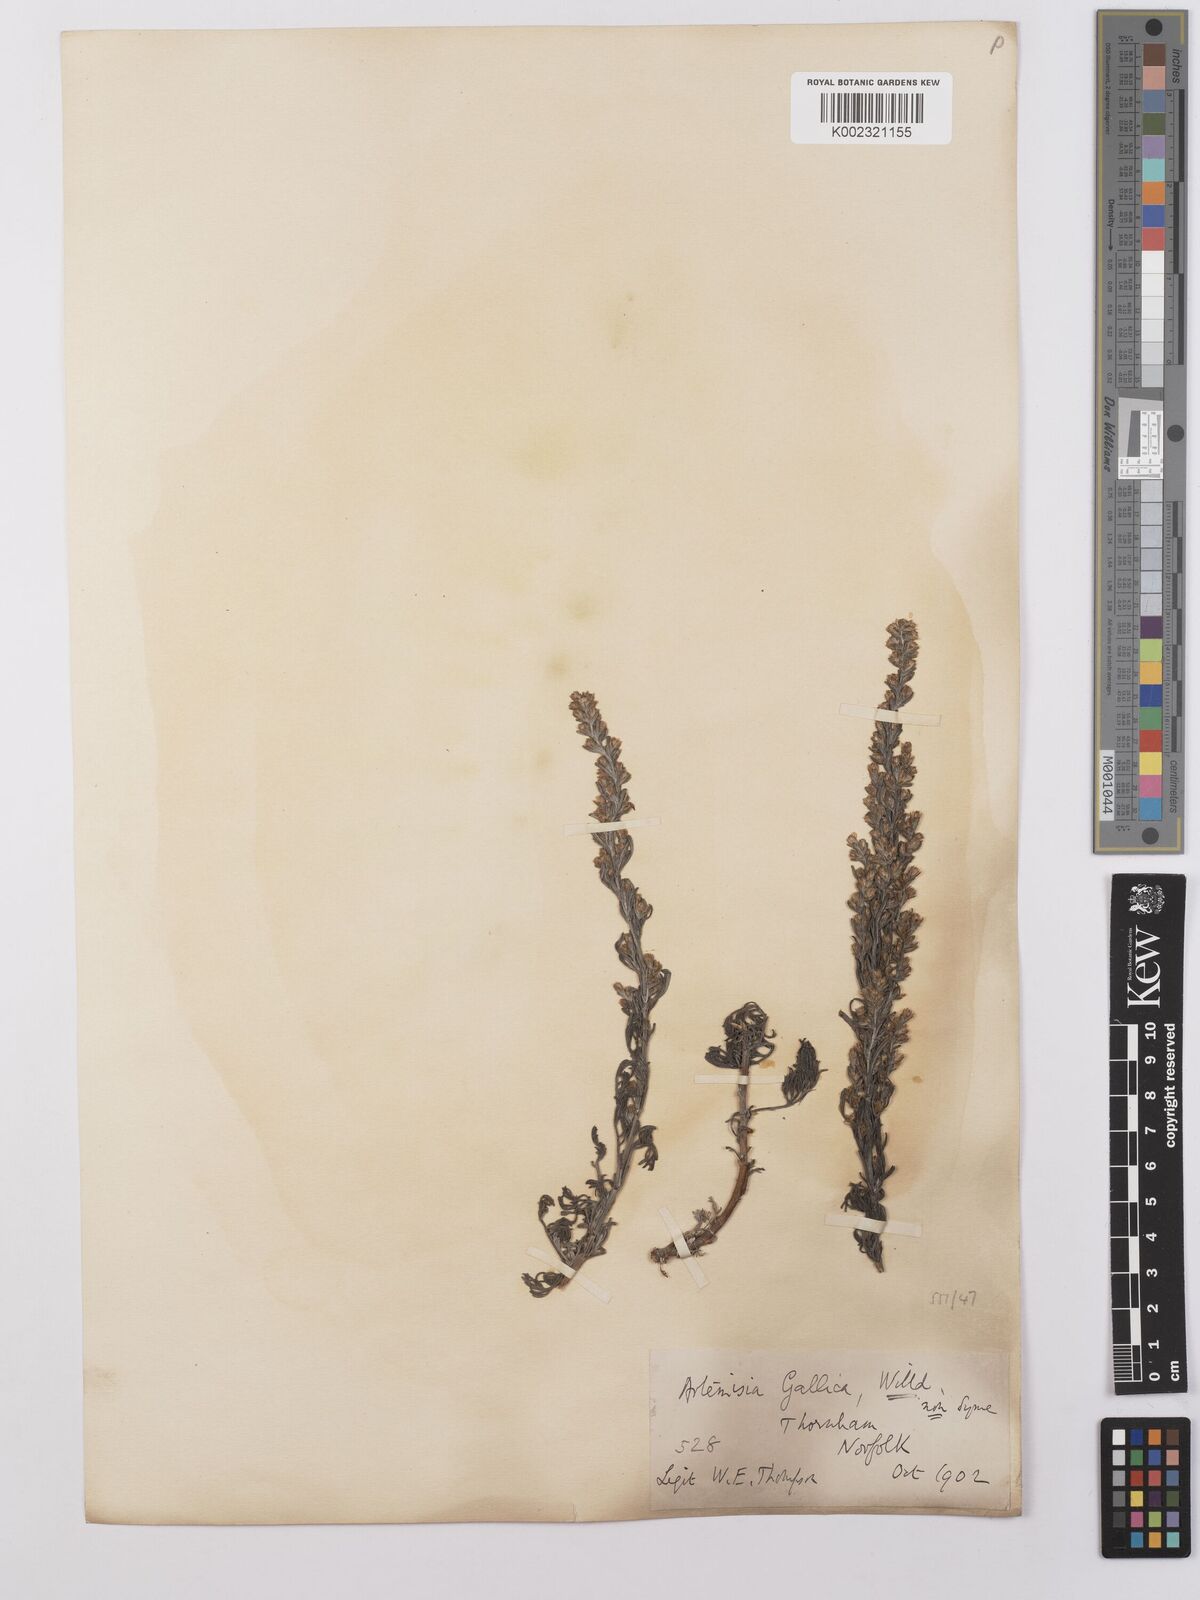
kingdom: Plantae
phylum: Tracheophyta
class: Magnoliopsida
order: Asterales
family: Asteraceae
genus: Artemisia
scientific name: Artemisia maritima
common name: Wormseed
